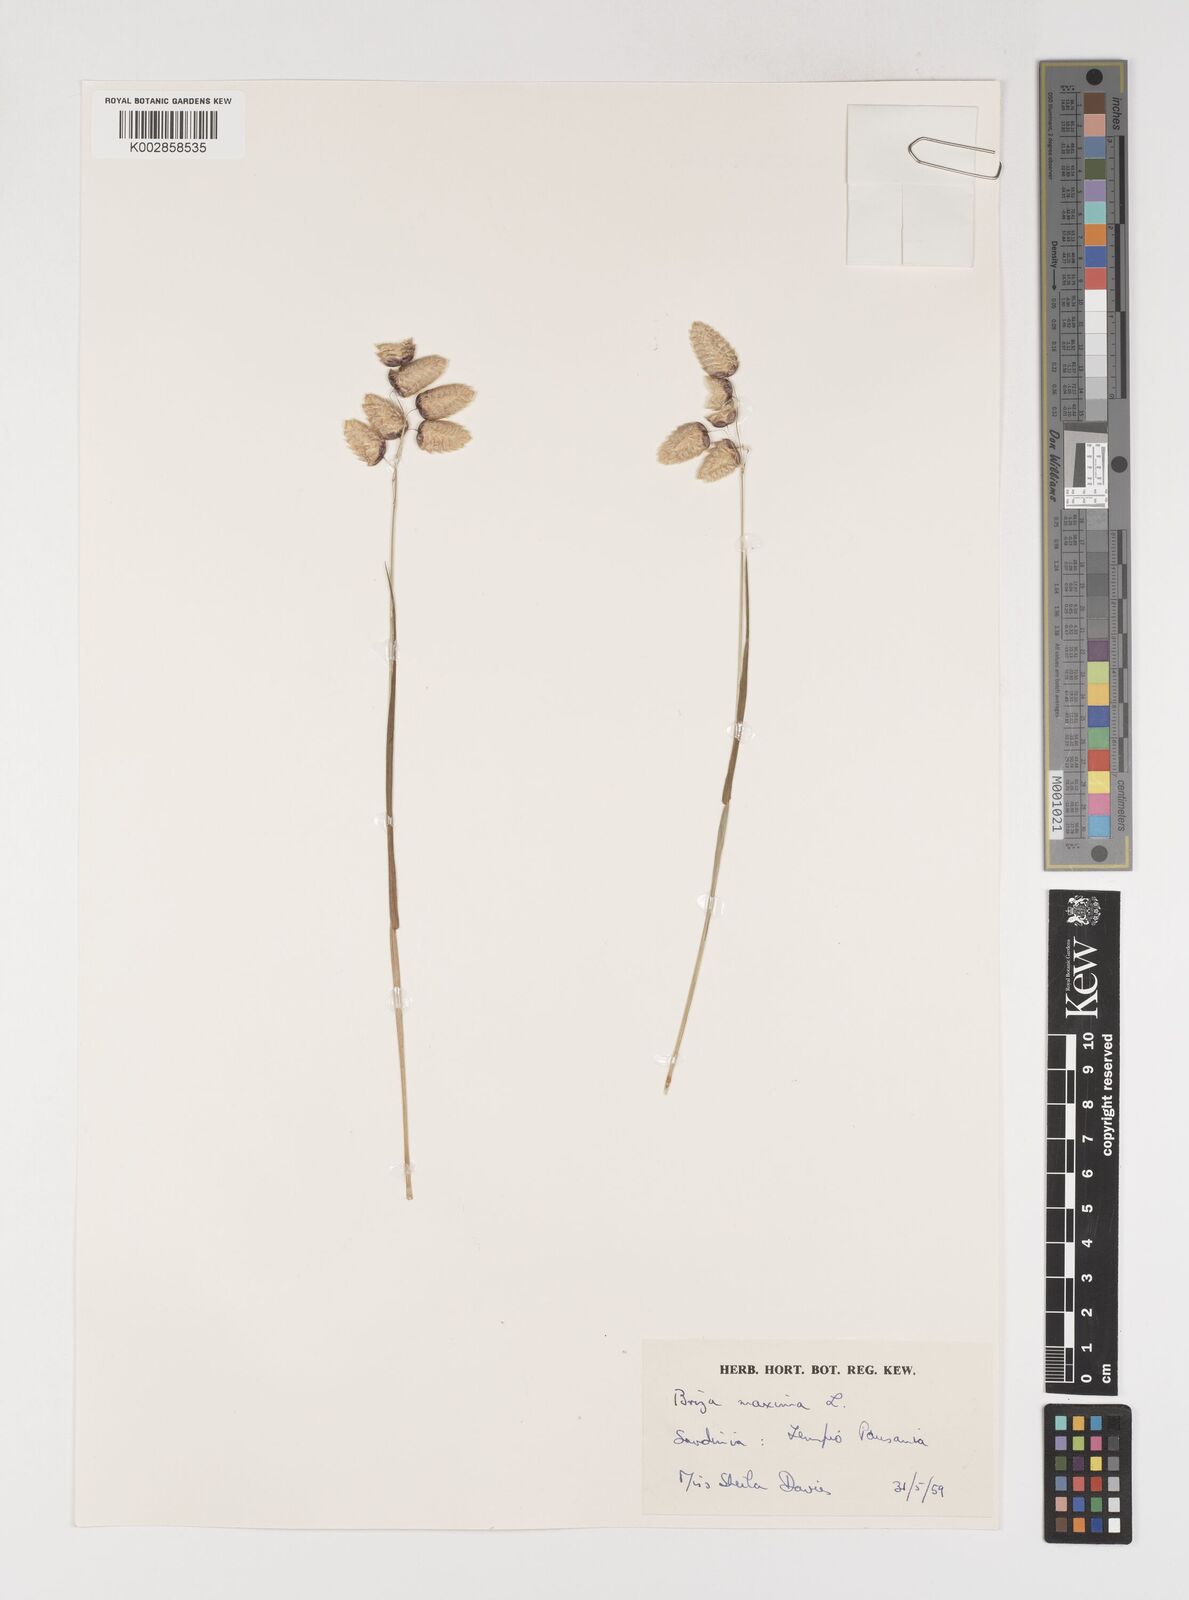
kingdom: Plantae
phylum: Tracheophyta
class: Liliopsida
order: Poales
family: Poaceae
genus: Briza
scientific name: Briza maxima
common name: Big quakinggrass
